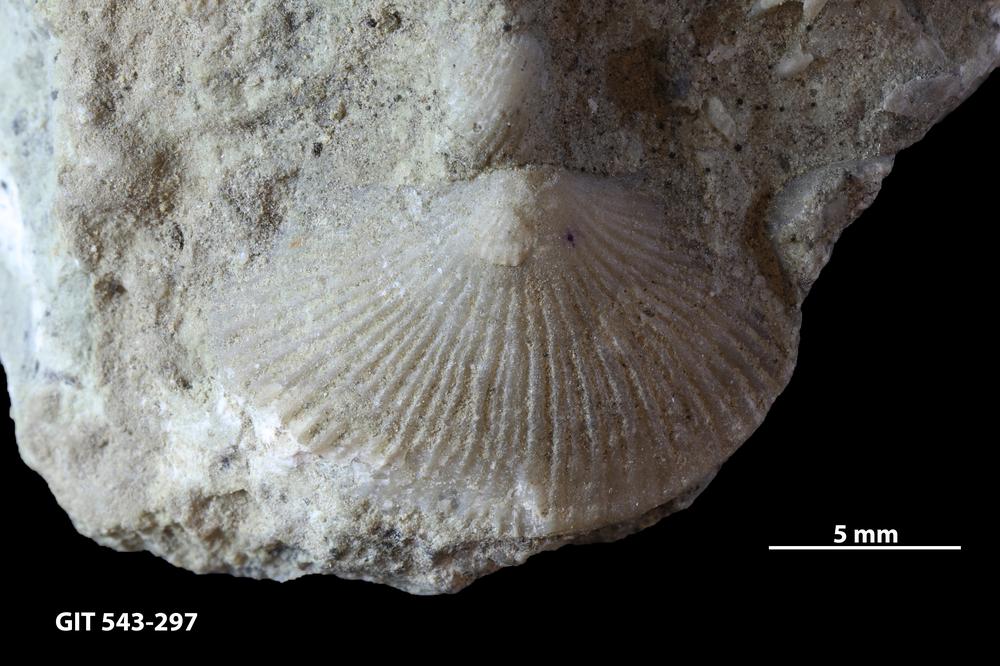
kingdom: Animalia
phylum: Brachiopoda
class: Rhynchonellata
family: Clitambonitidae
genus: Ilmarinia
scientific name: Ilmarinia dimorpha
